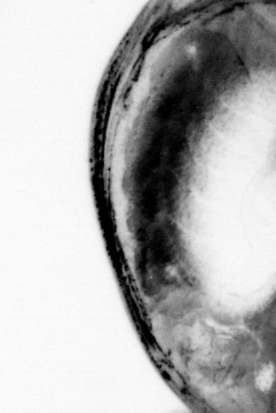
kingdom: Animalia
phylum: Chordata
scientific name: Chordata
